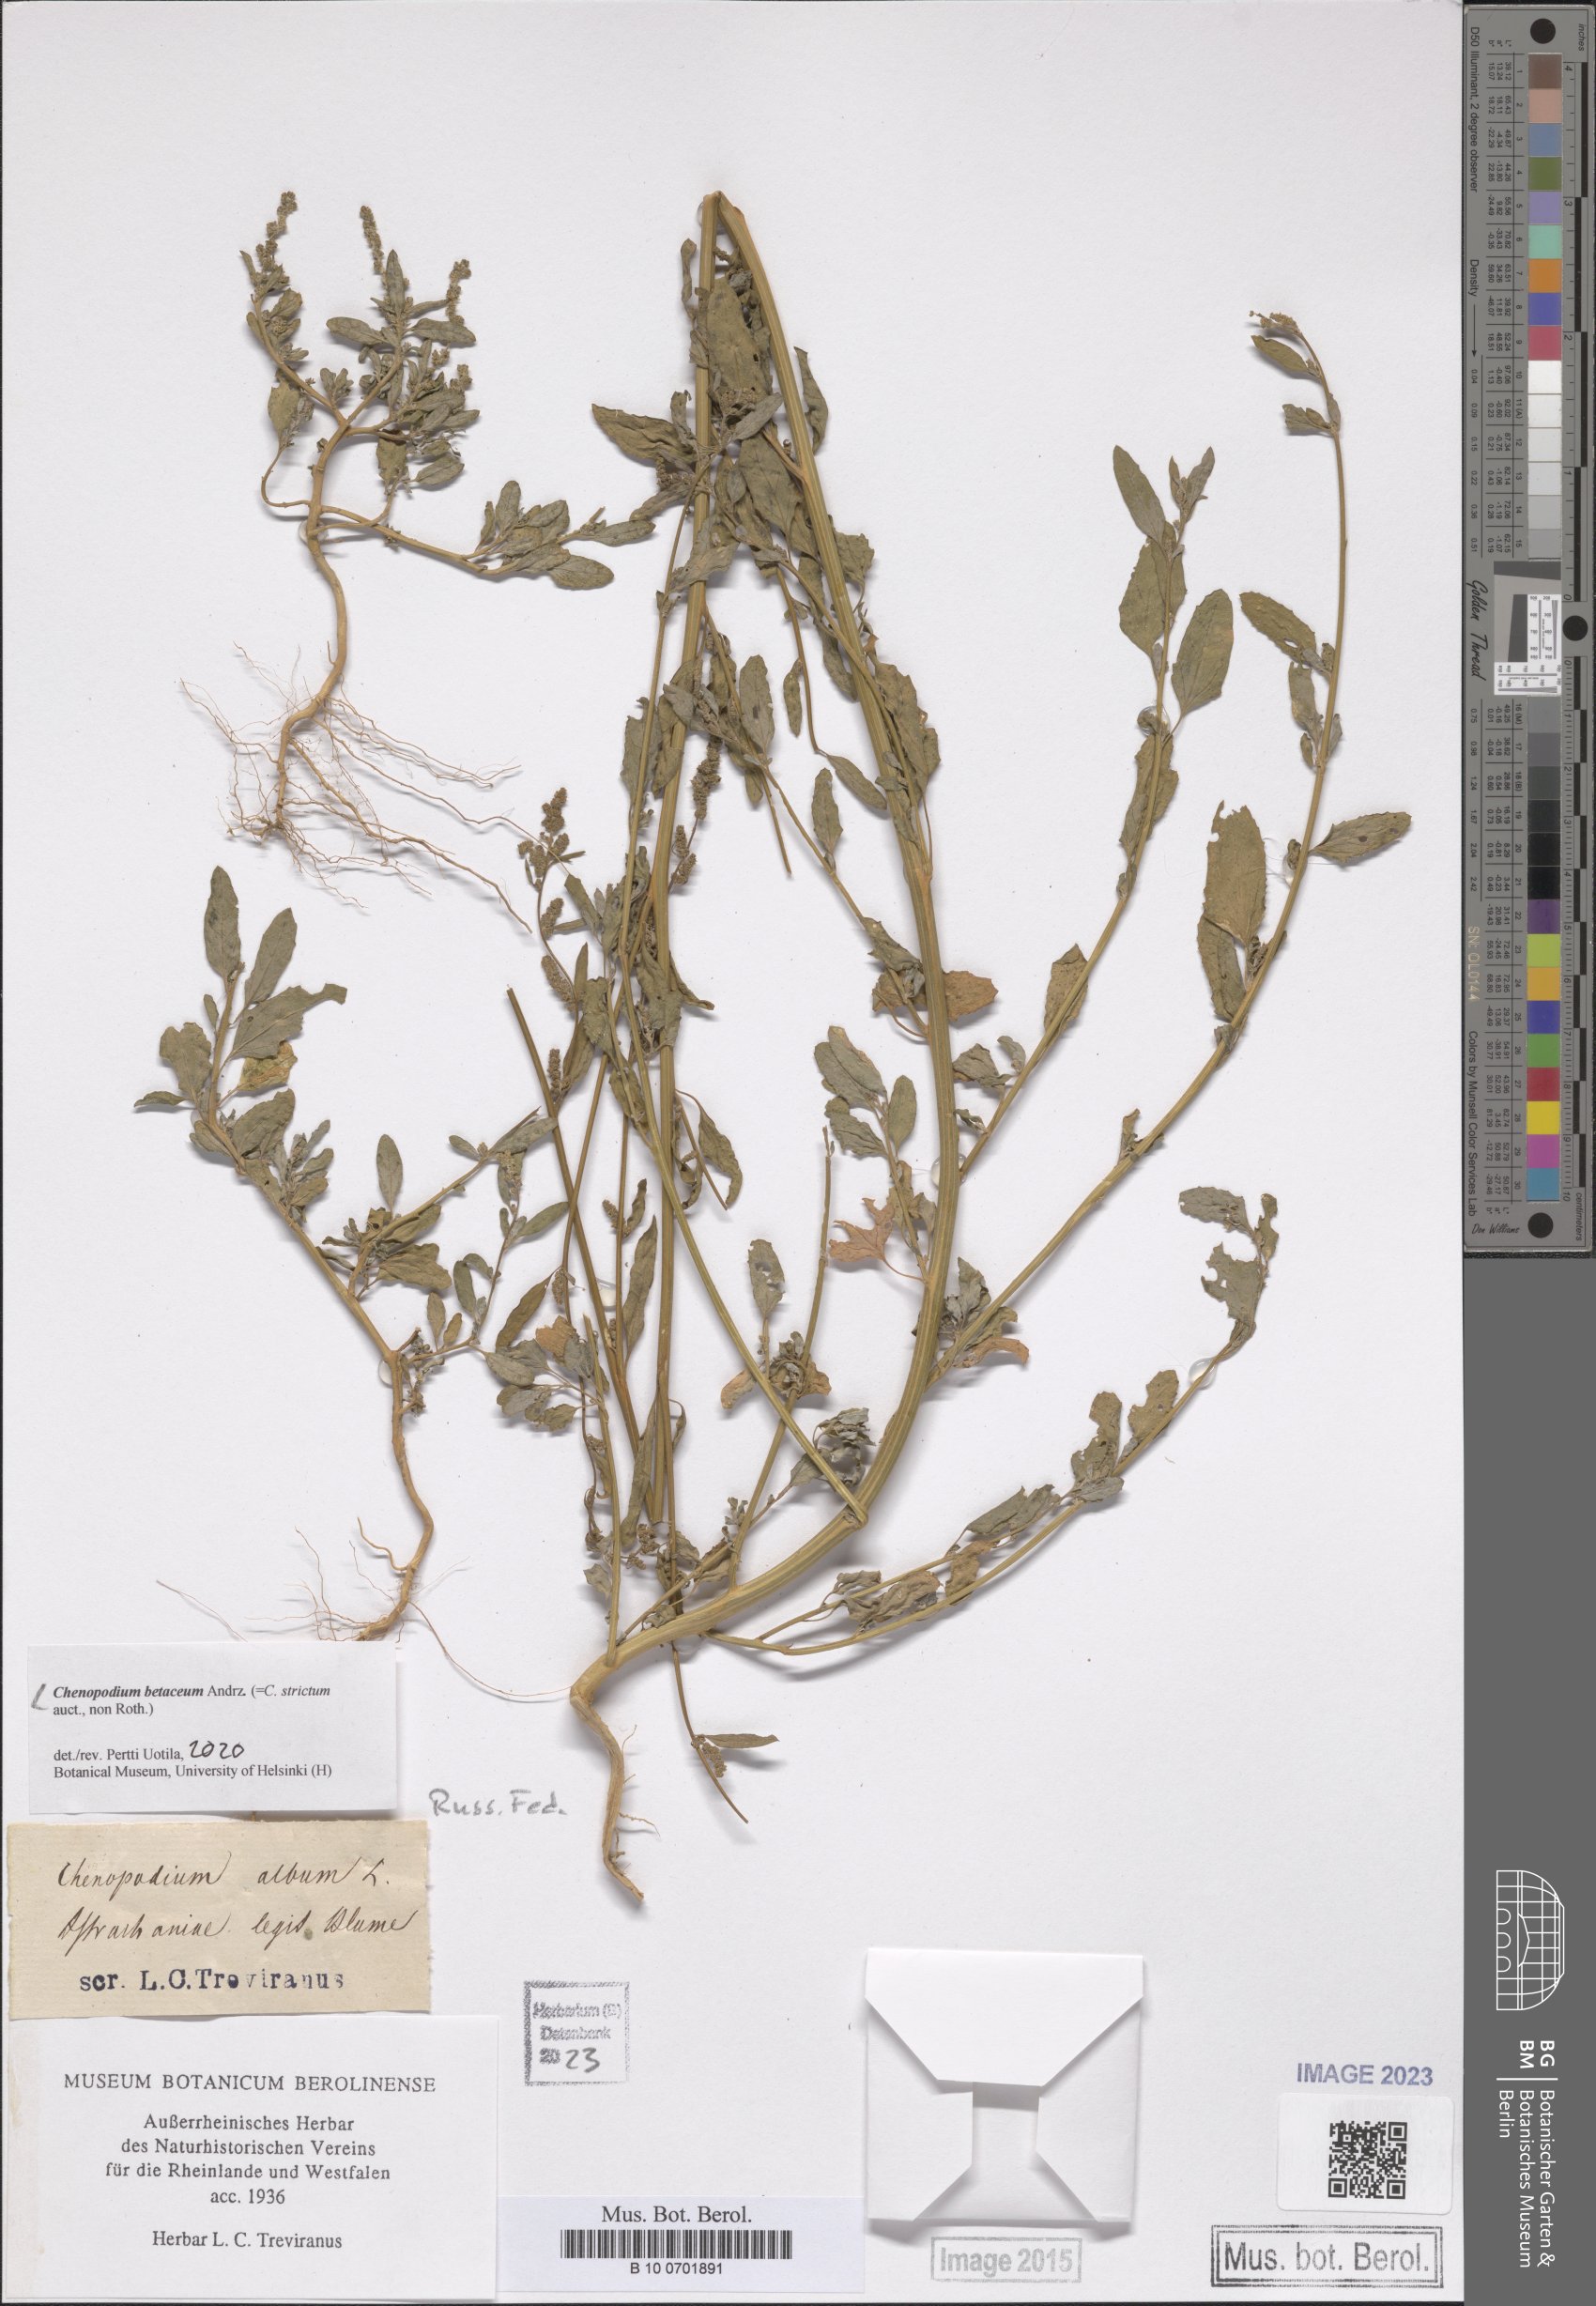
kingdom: Plantae
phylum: Tracheophyta
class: Magnoliopsida
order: Caryophyllales
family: Amaranthaceae
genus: Chenopodium
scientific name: Chenopodium betaceum
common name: Striped goosefoot
